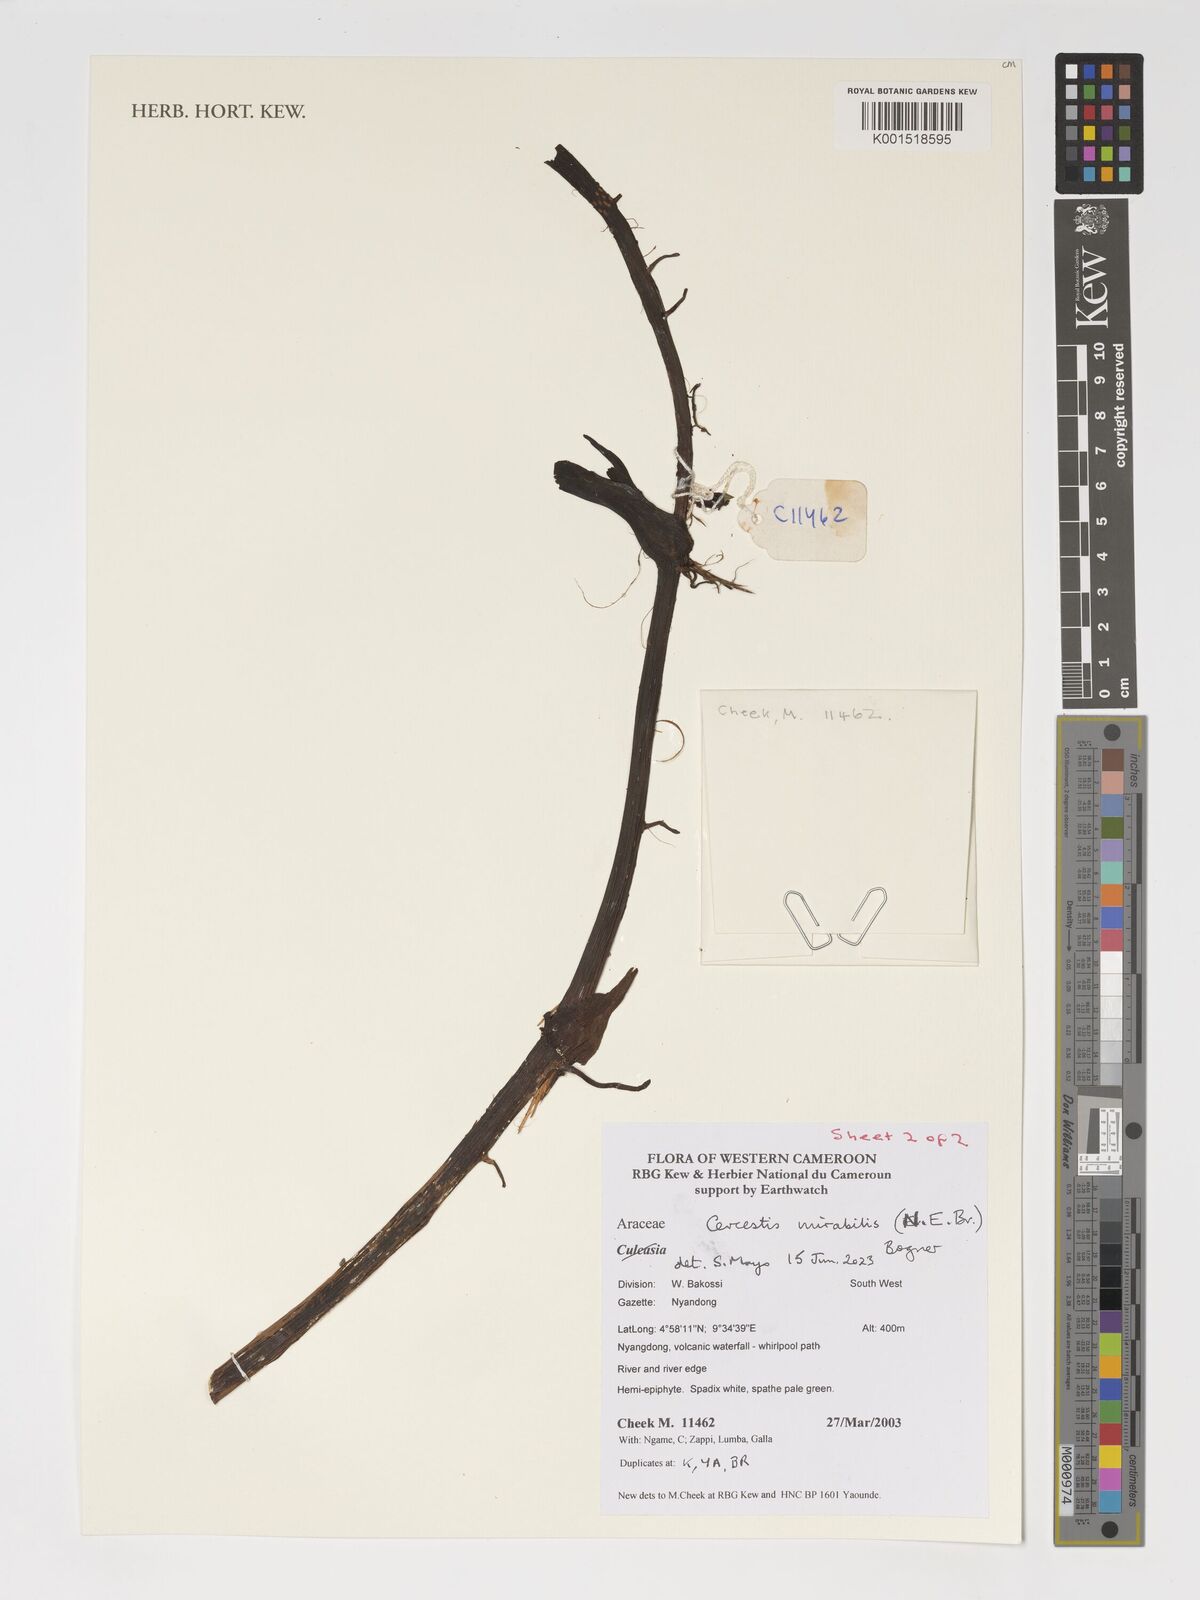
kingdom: Plantae
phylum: Tracheophyta
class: Liliopsida
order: Alismatales
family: Araceae
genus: Cercestis
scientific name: Cercestis mirabilis
